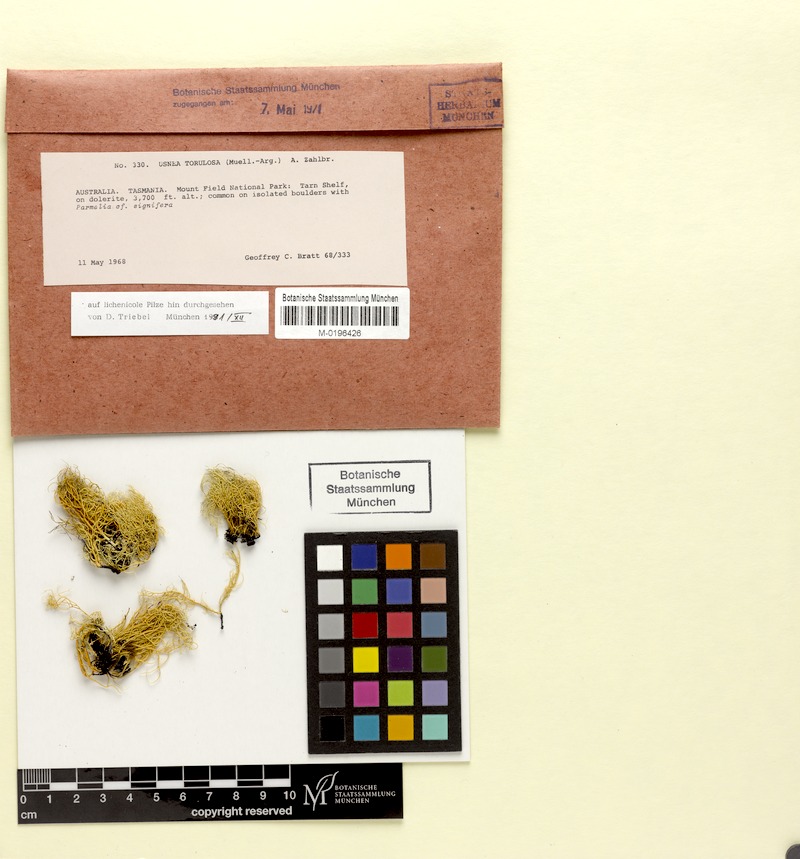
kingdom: Fungi
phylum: Ascomycota
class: Lecanoromycetes
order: Lecanorales
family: Parmeliaceae
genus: Usnea
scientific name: Usnea torulosa
